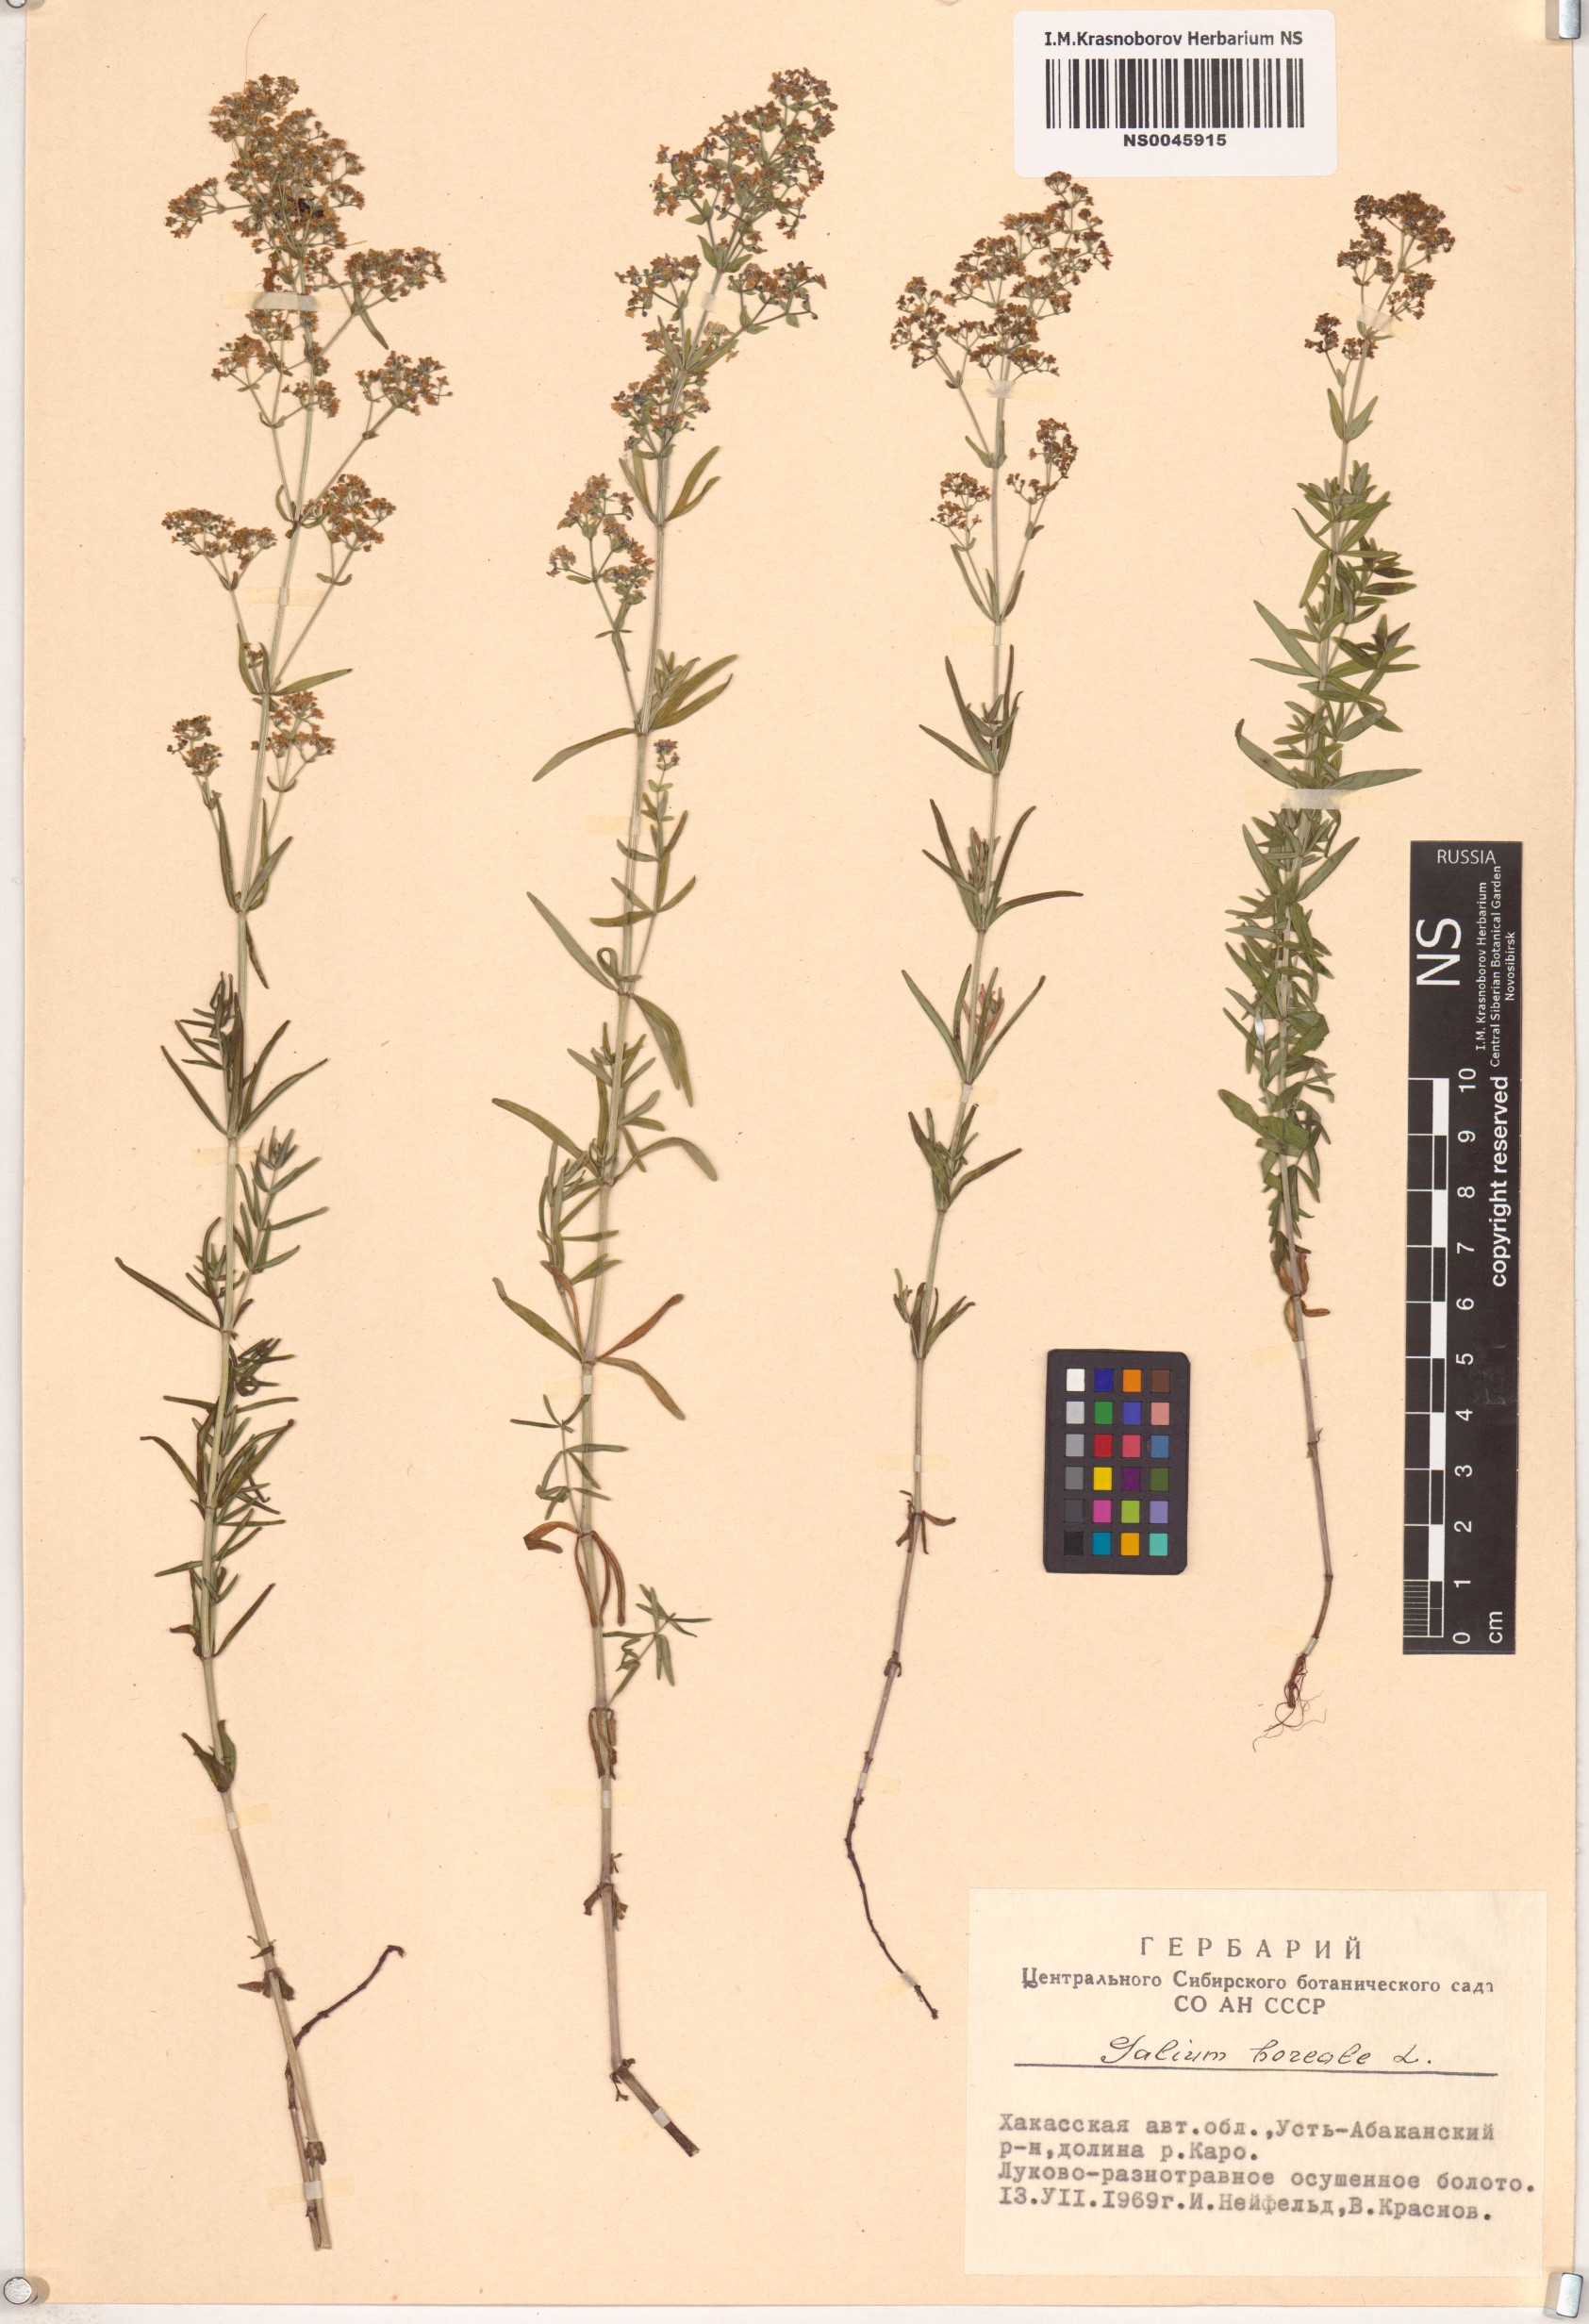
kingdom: Plantae
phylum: Tracheophyta
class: Magnoliopsida
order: Gentianales
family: Rubiaceae
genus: Galium
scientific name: Galium boreale
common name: Northern bedstraw
